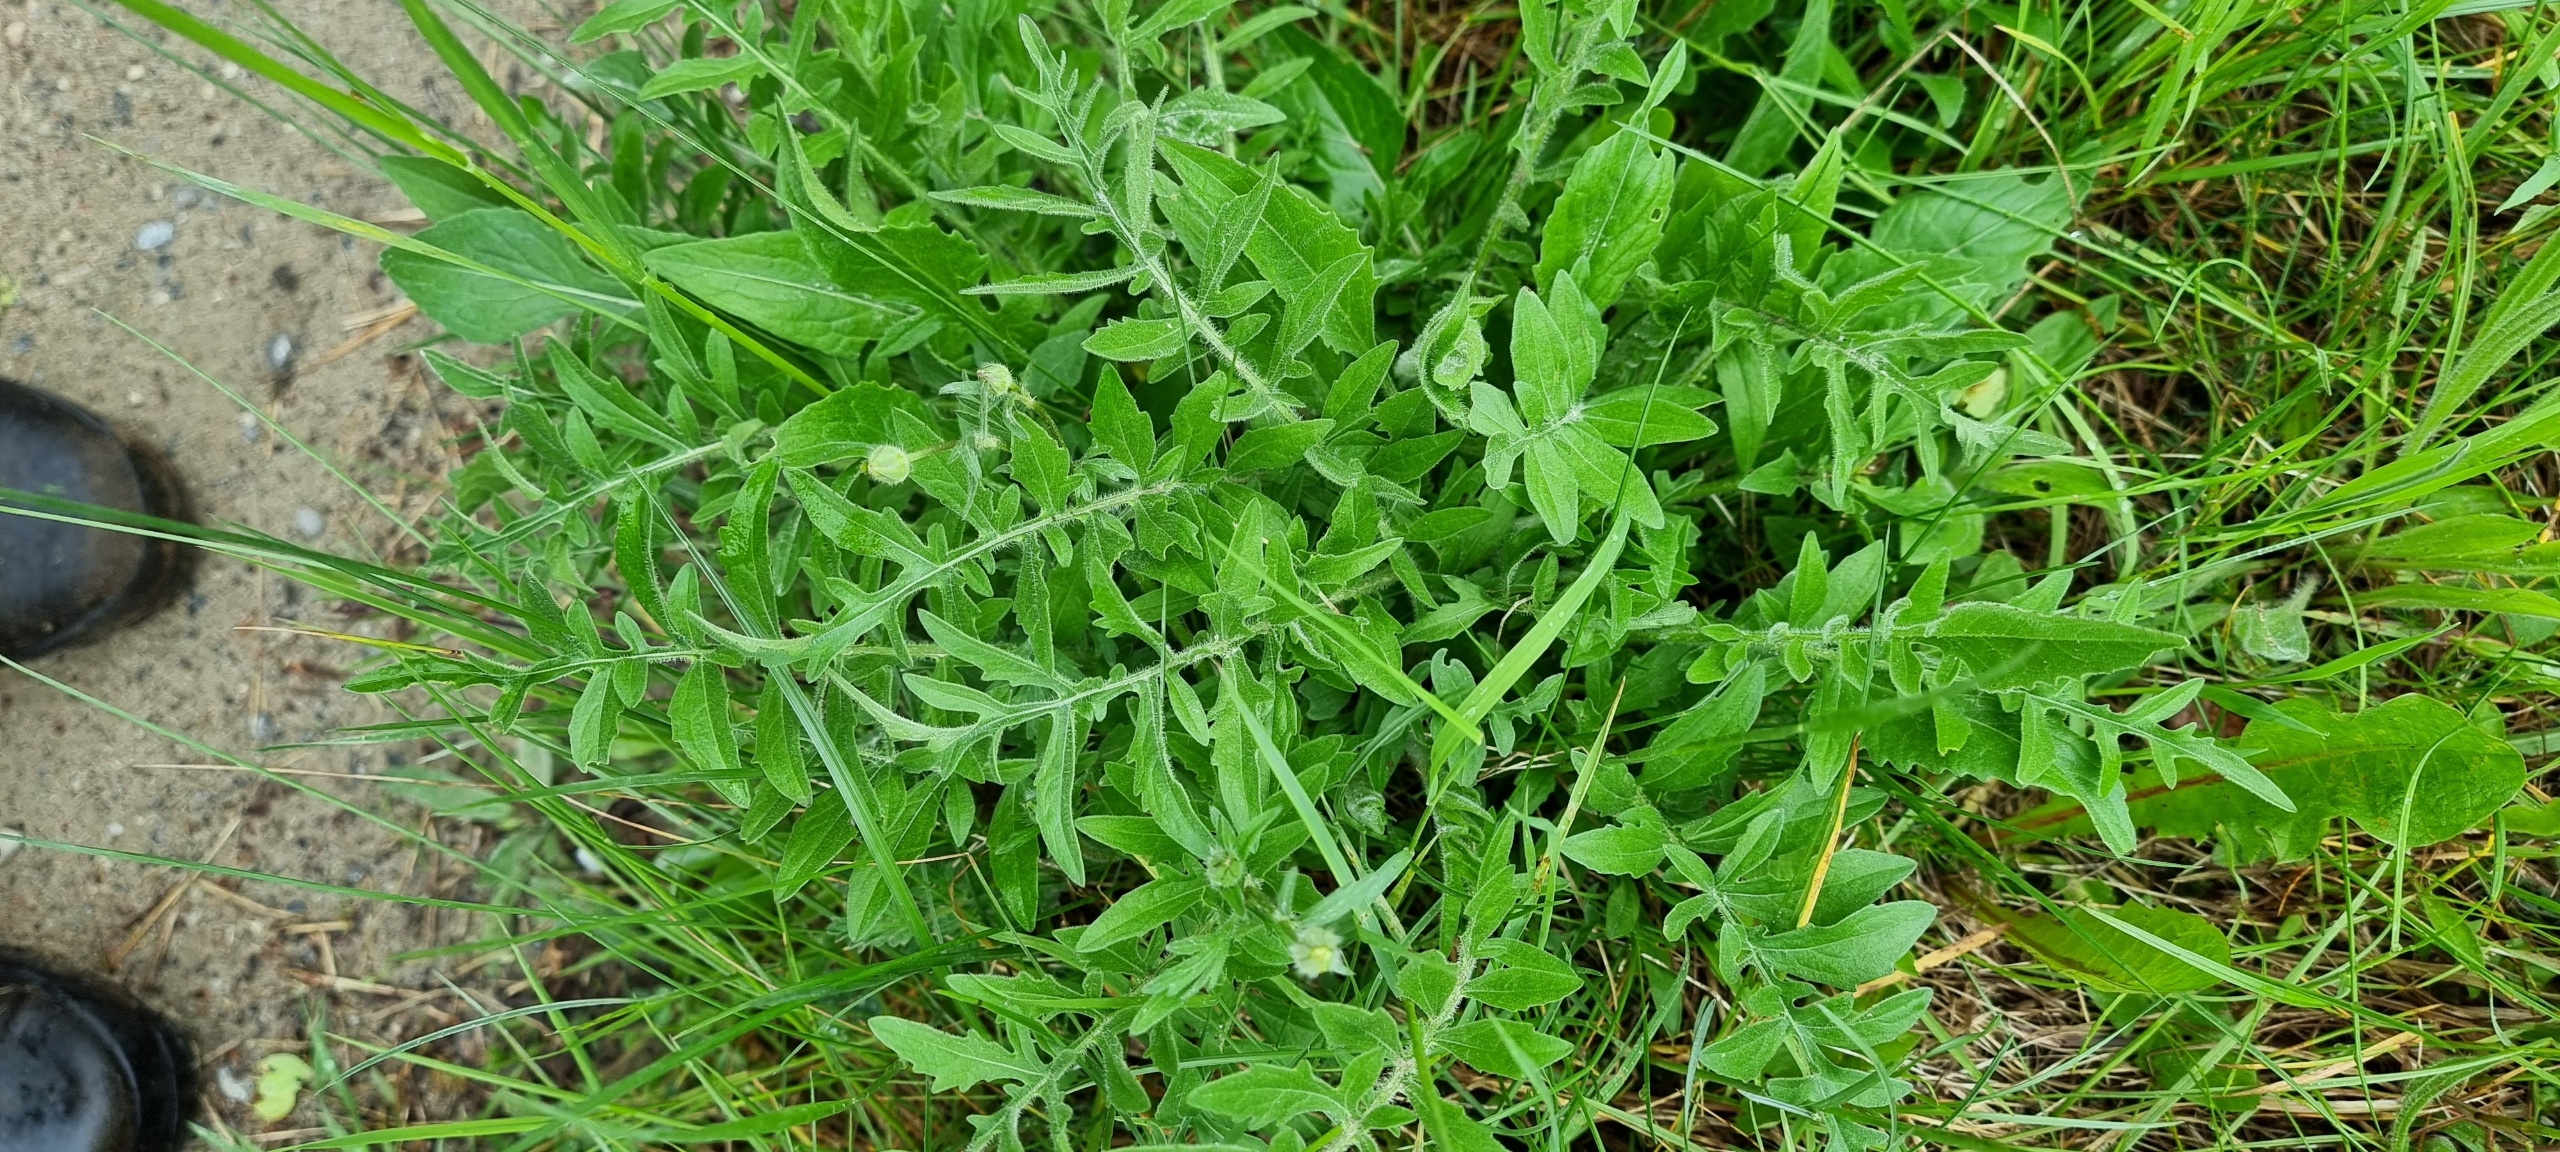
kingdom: Plantae
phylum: Tracheophyta
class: Magnoliopsida
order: Asterales
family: Asteraceae
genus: Centaurea
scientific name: Centaurea scabiosa
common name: Stor knopurt
